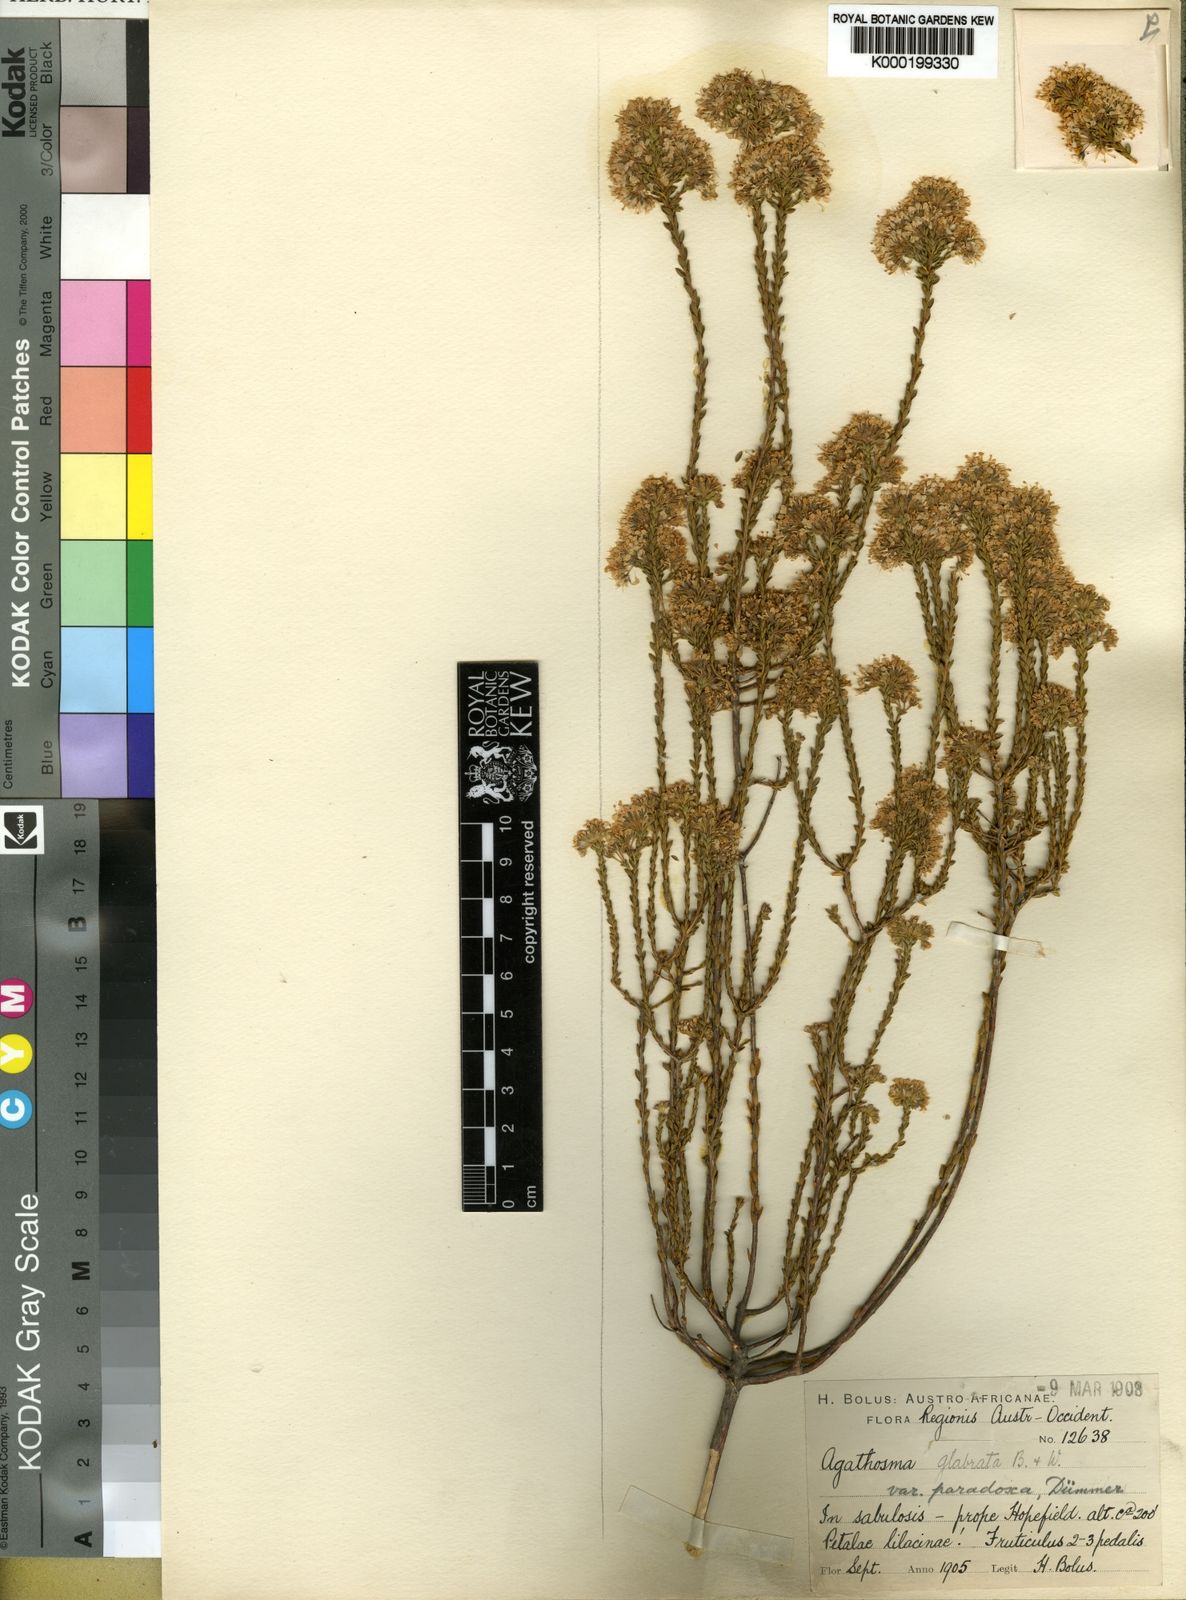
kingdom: Plantae
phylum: Tracheophyta
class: Magnoliopsida
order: Sapindales
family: Rutaceae
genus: Agathosma
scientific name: Agathosma glabrata
